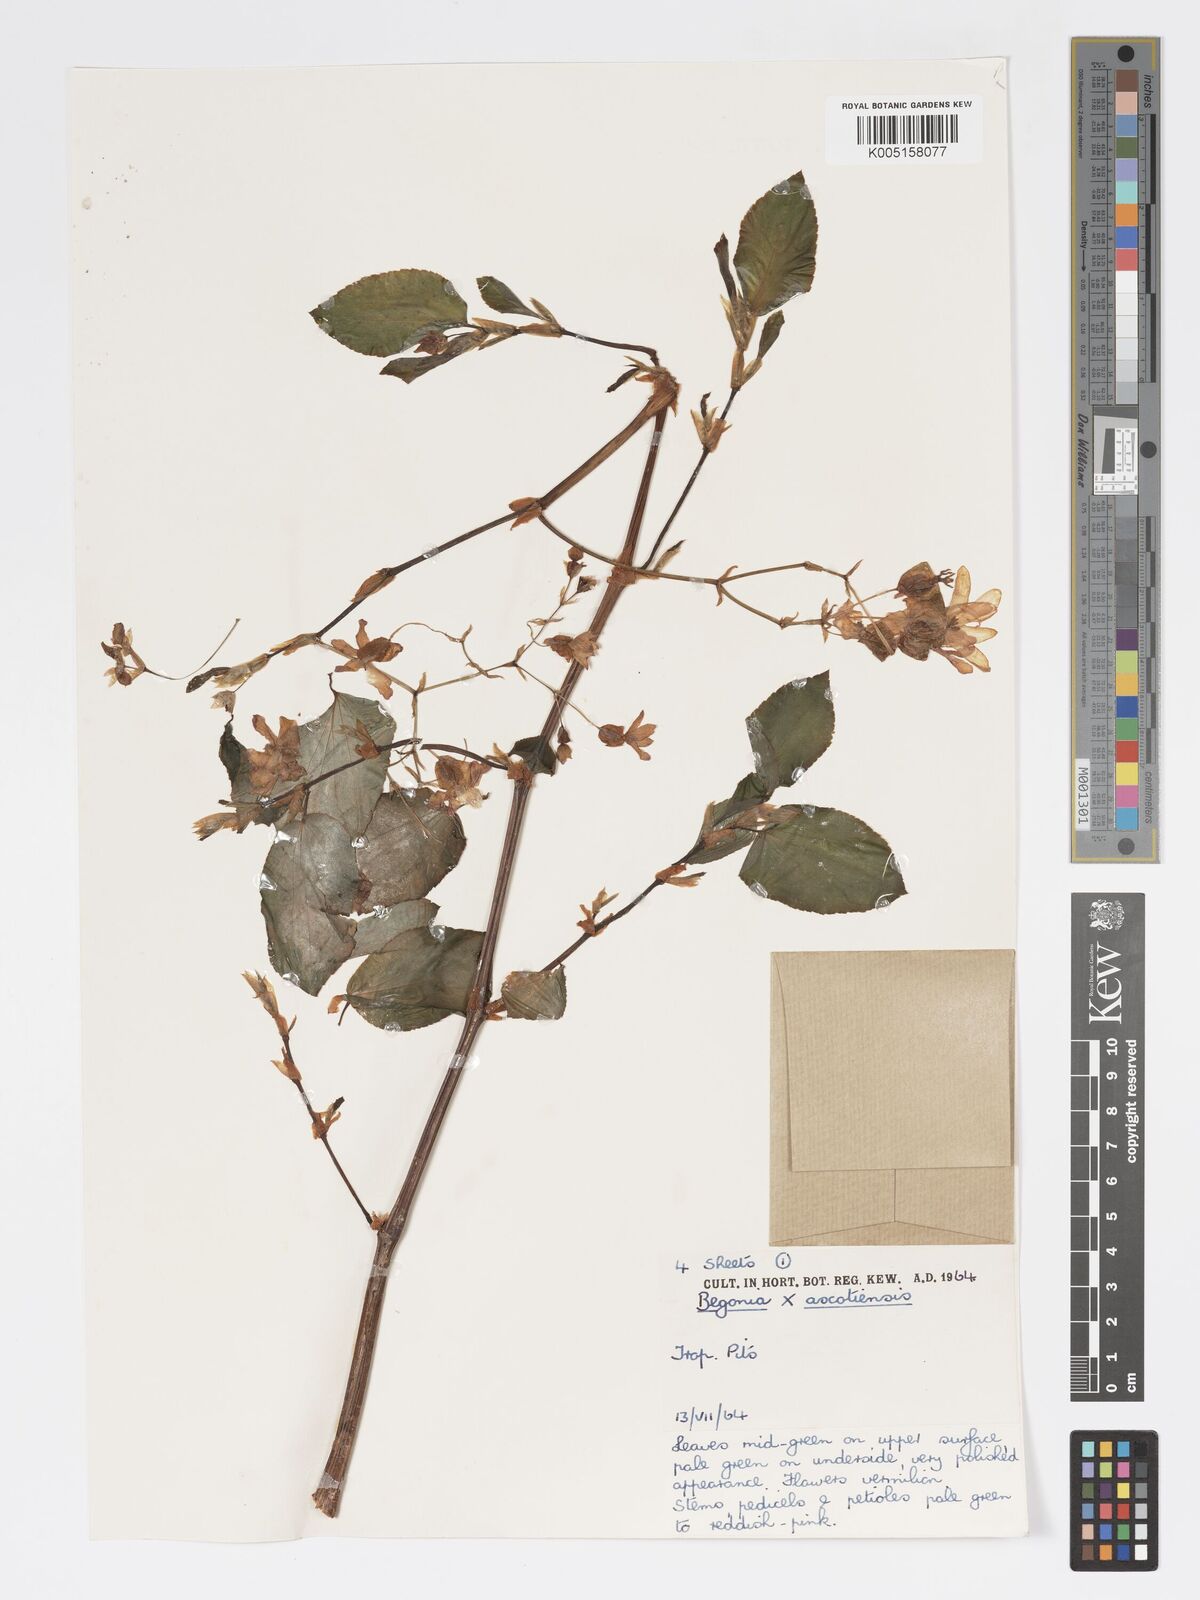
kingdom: Plantae
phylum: Tracheophyta
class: Magnoliopsida
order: Cucurbitales
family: Begoniaceae
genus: Begonia
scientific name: Begonia ascotiensis
